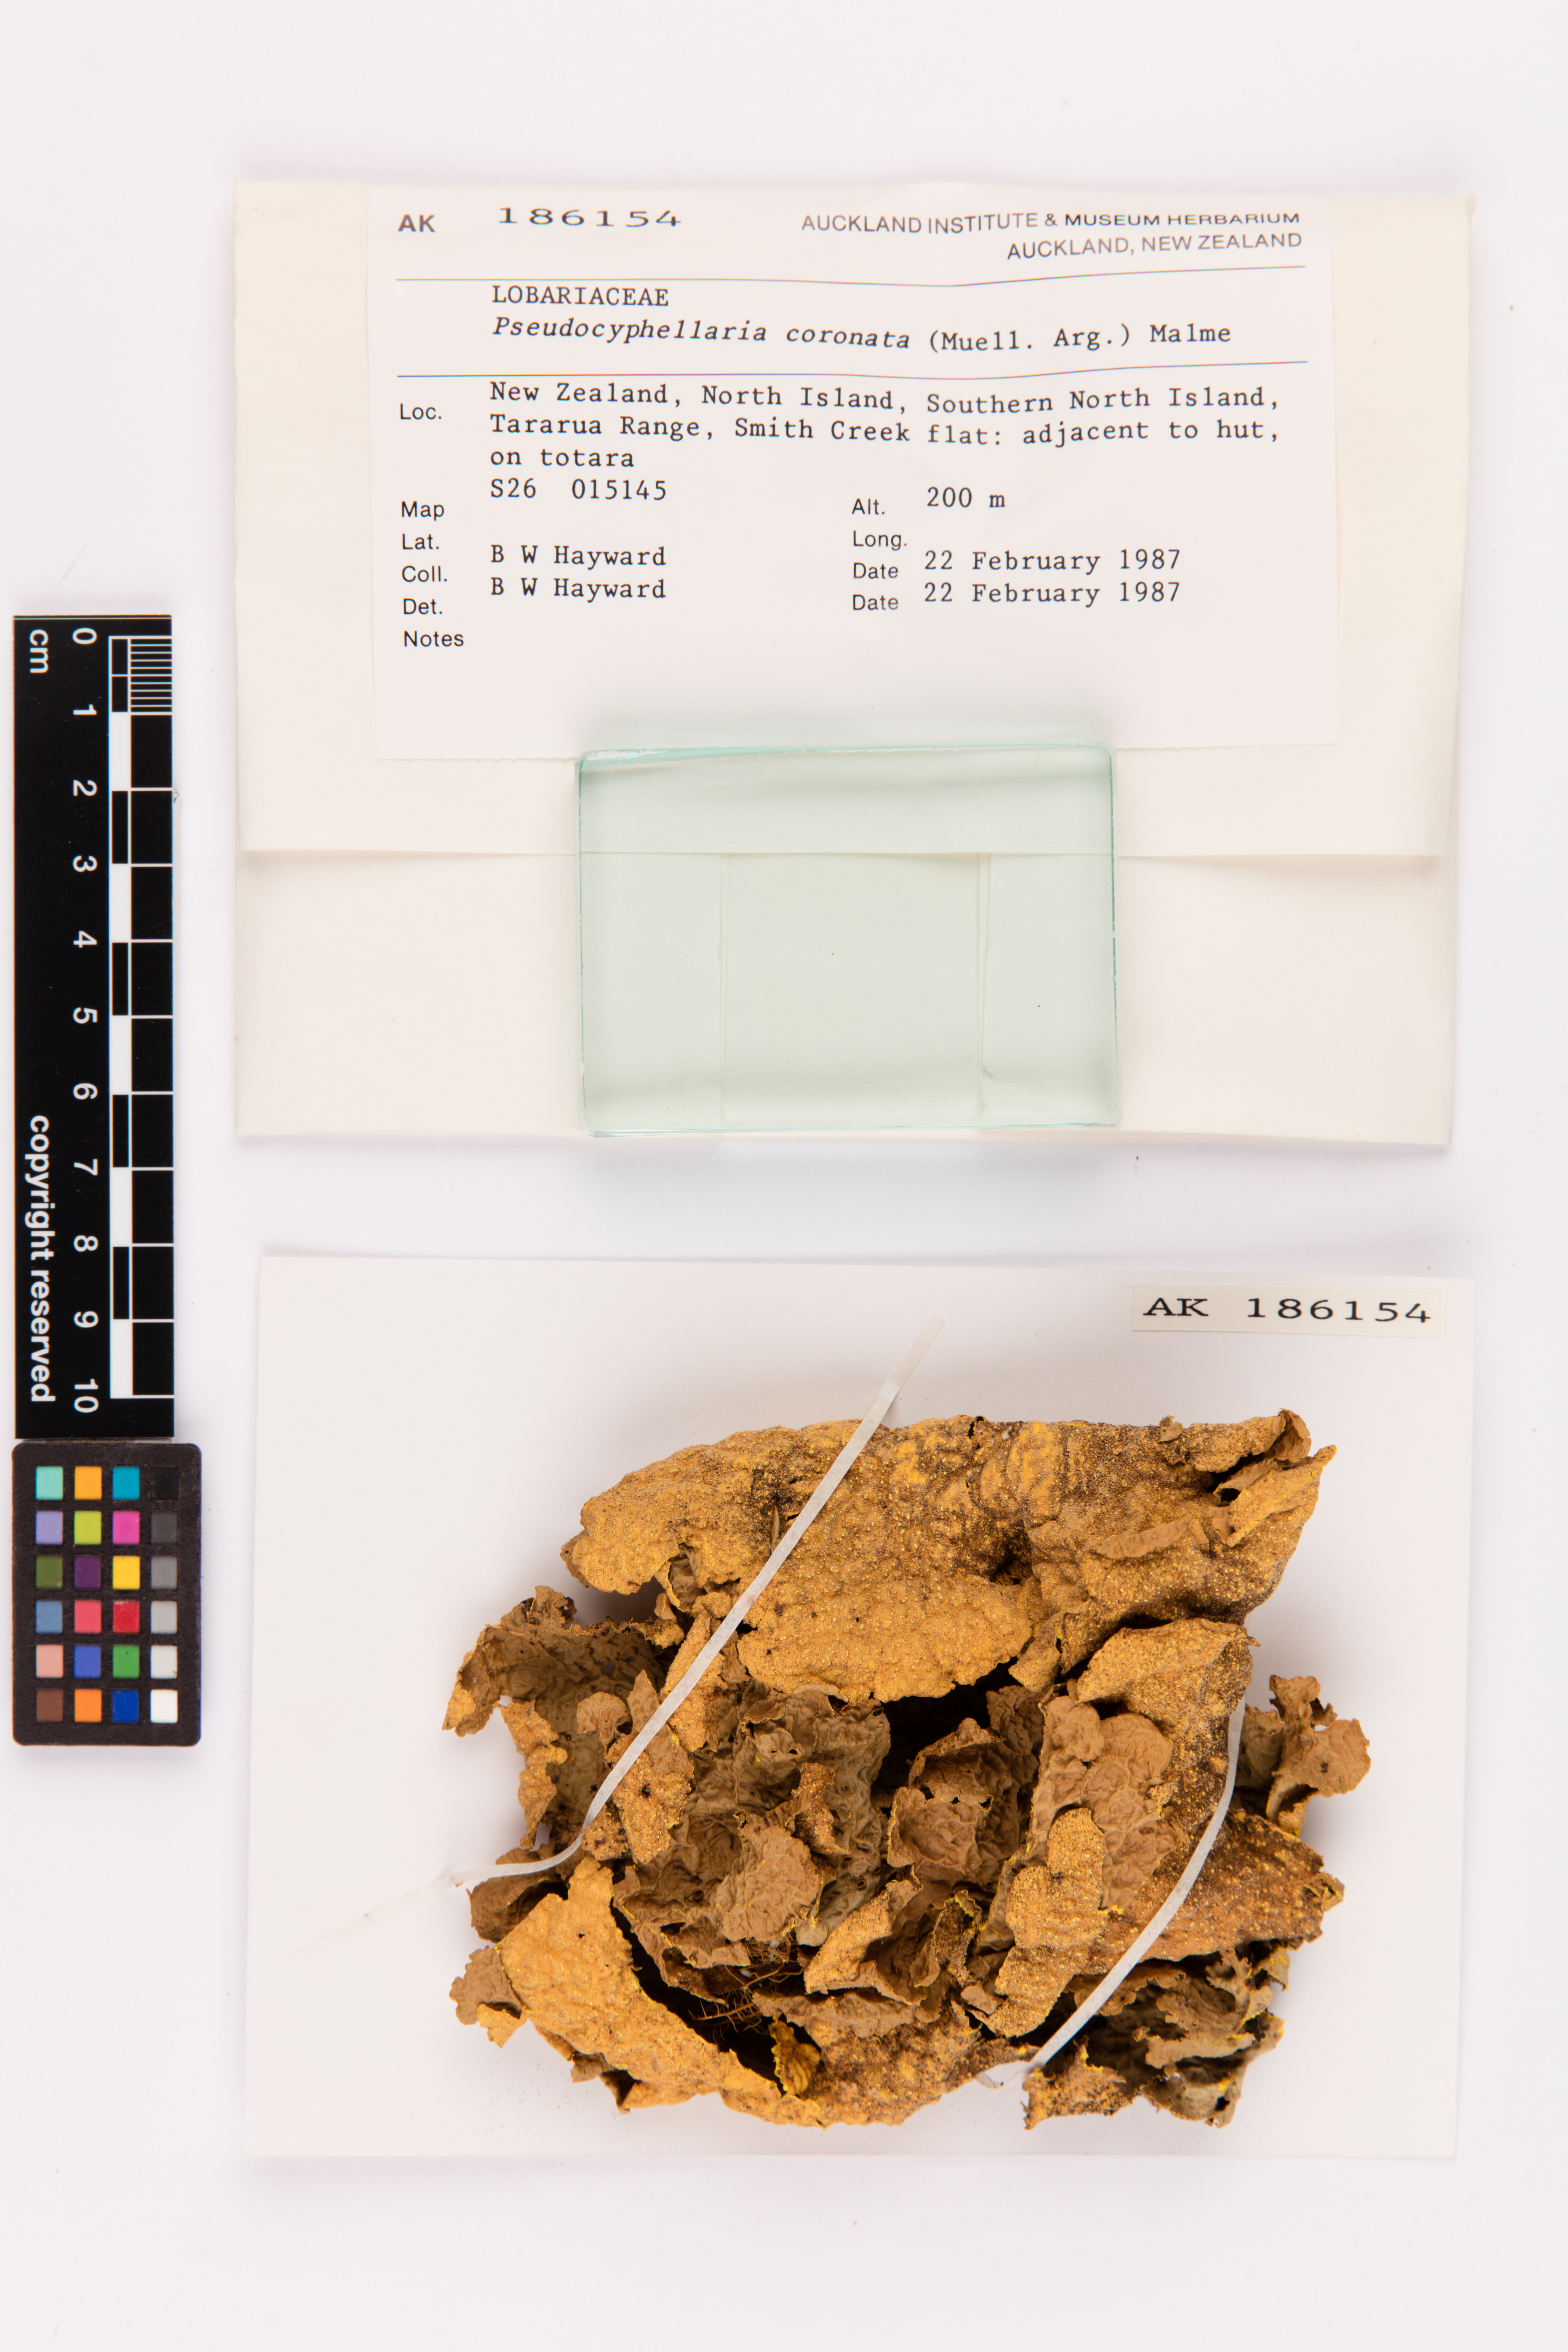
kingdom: Fungi
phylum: Ascomycota
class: Lecanoromycetes
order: Peltigerales
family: Lobariaceae
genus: Yarrumia
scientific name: Yarrumia coronata
